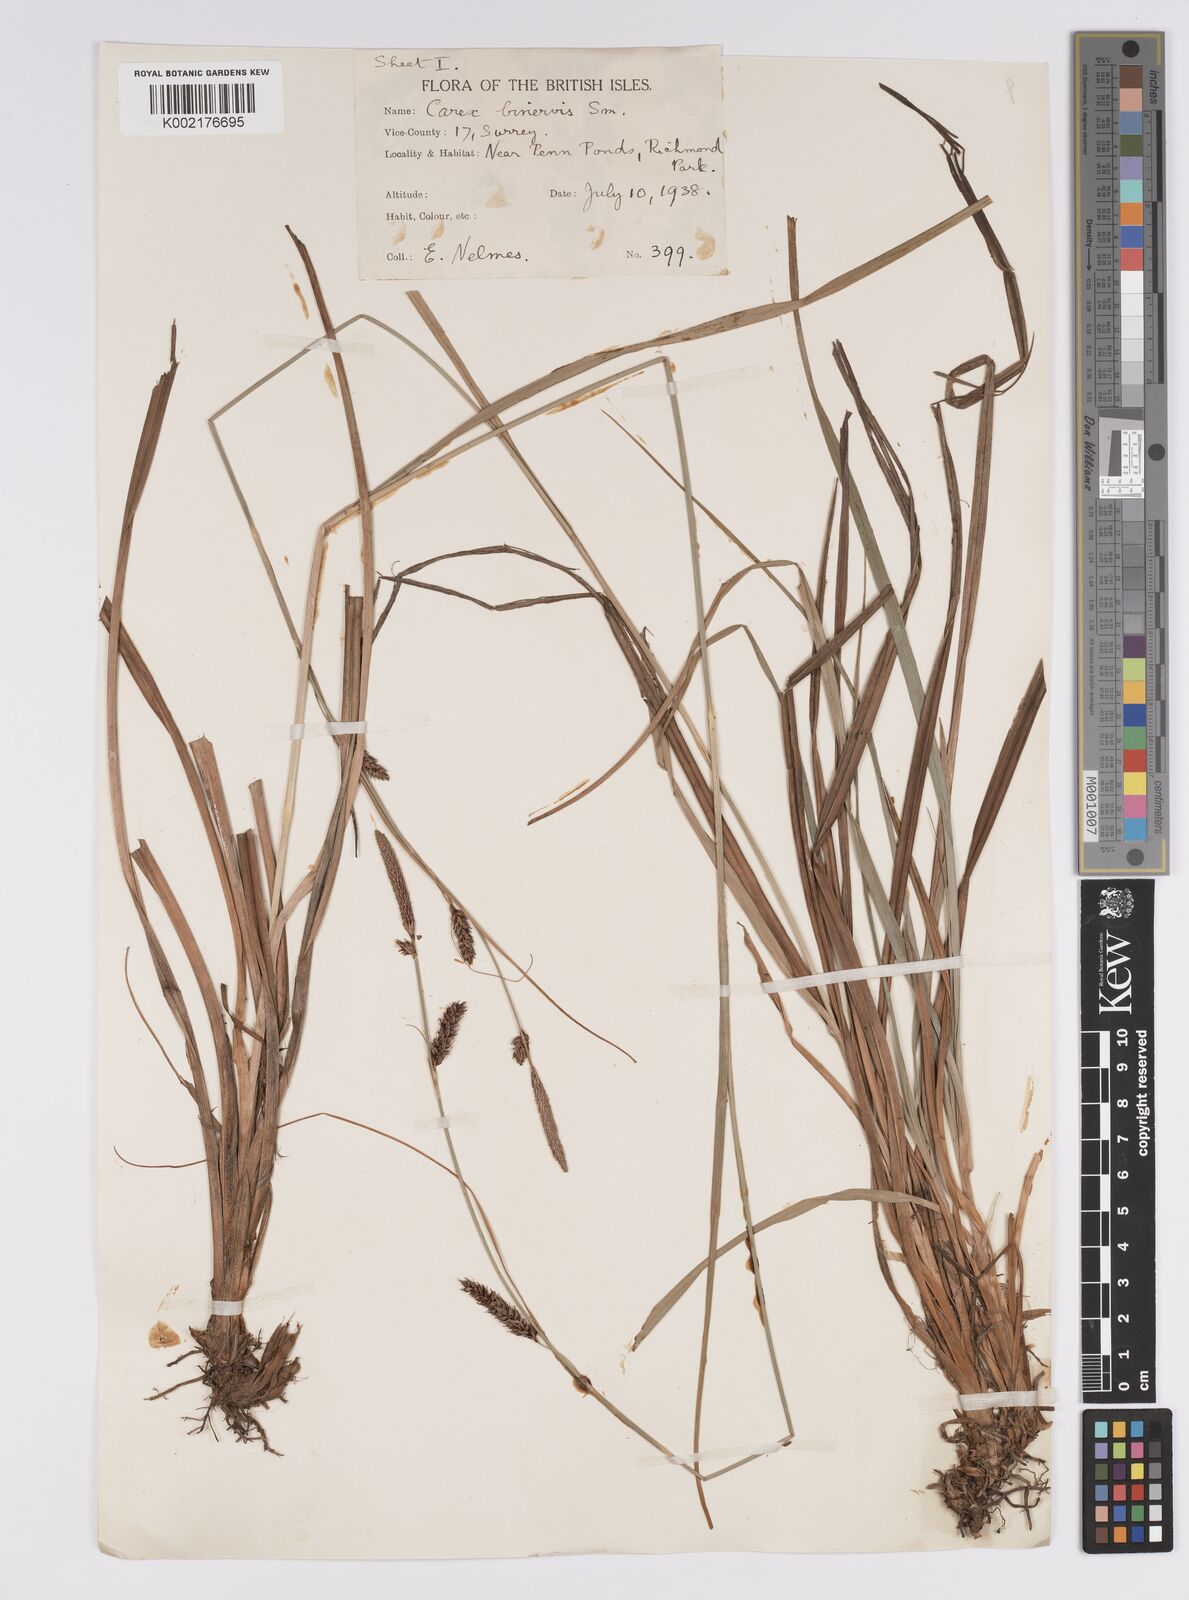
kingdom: Plantae
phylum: Tracheophyta
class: Liliopsida
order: Poales
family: Cyperaceae
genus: Carex
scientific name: Carex binervis
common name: Green-ribbed sedge
